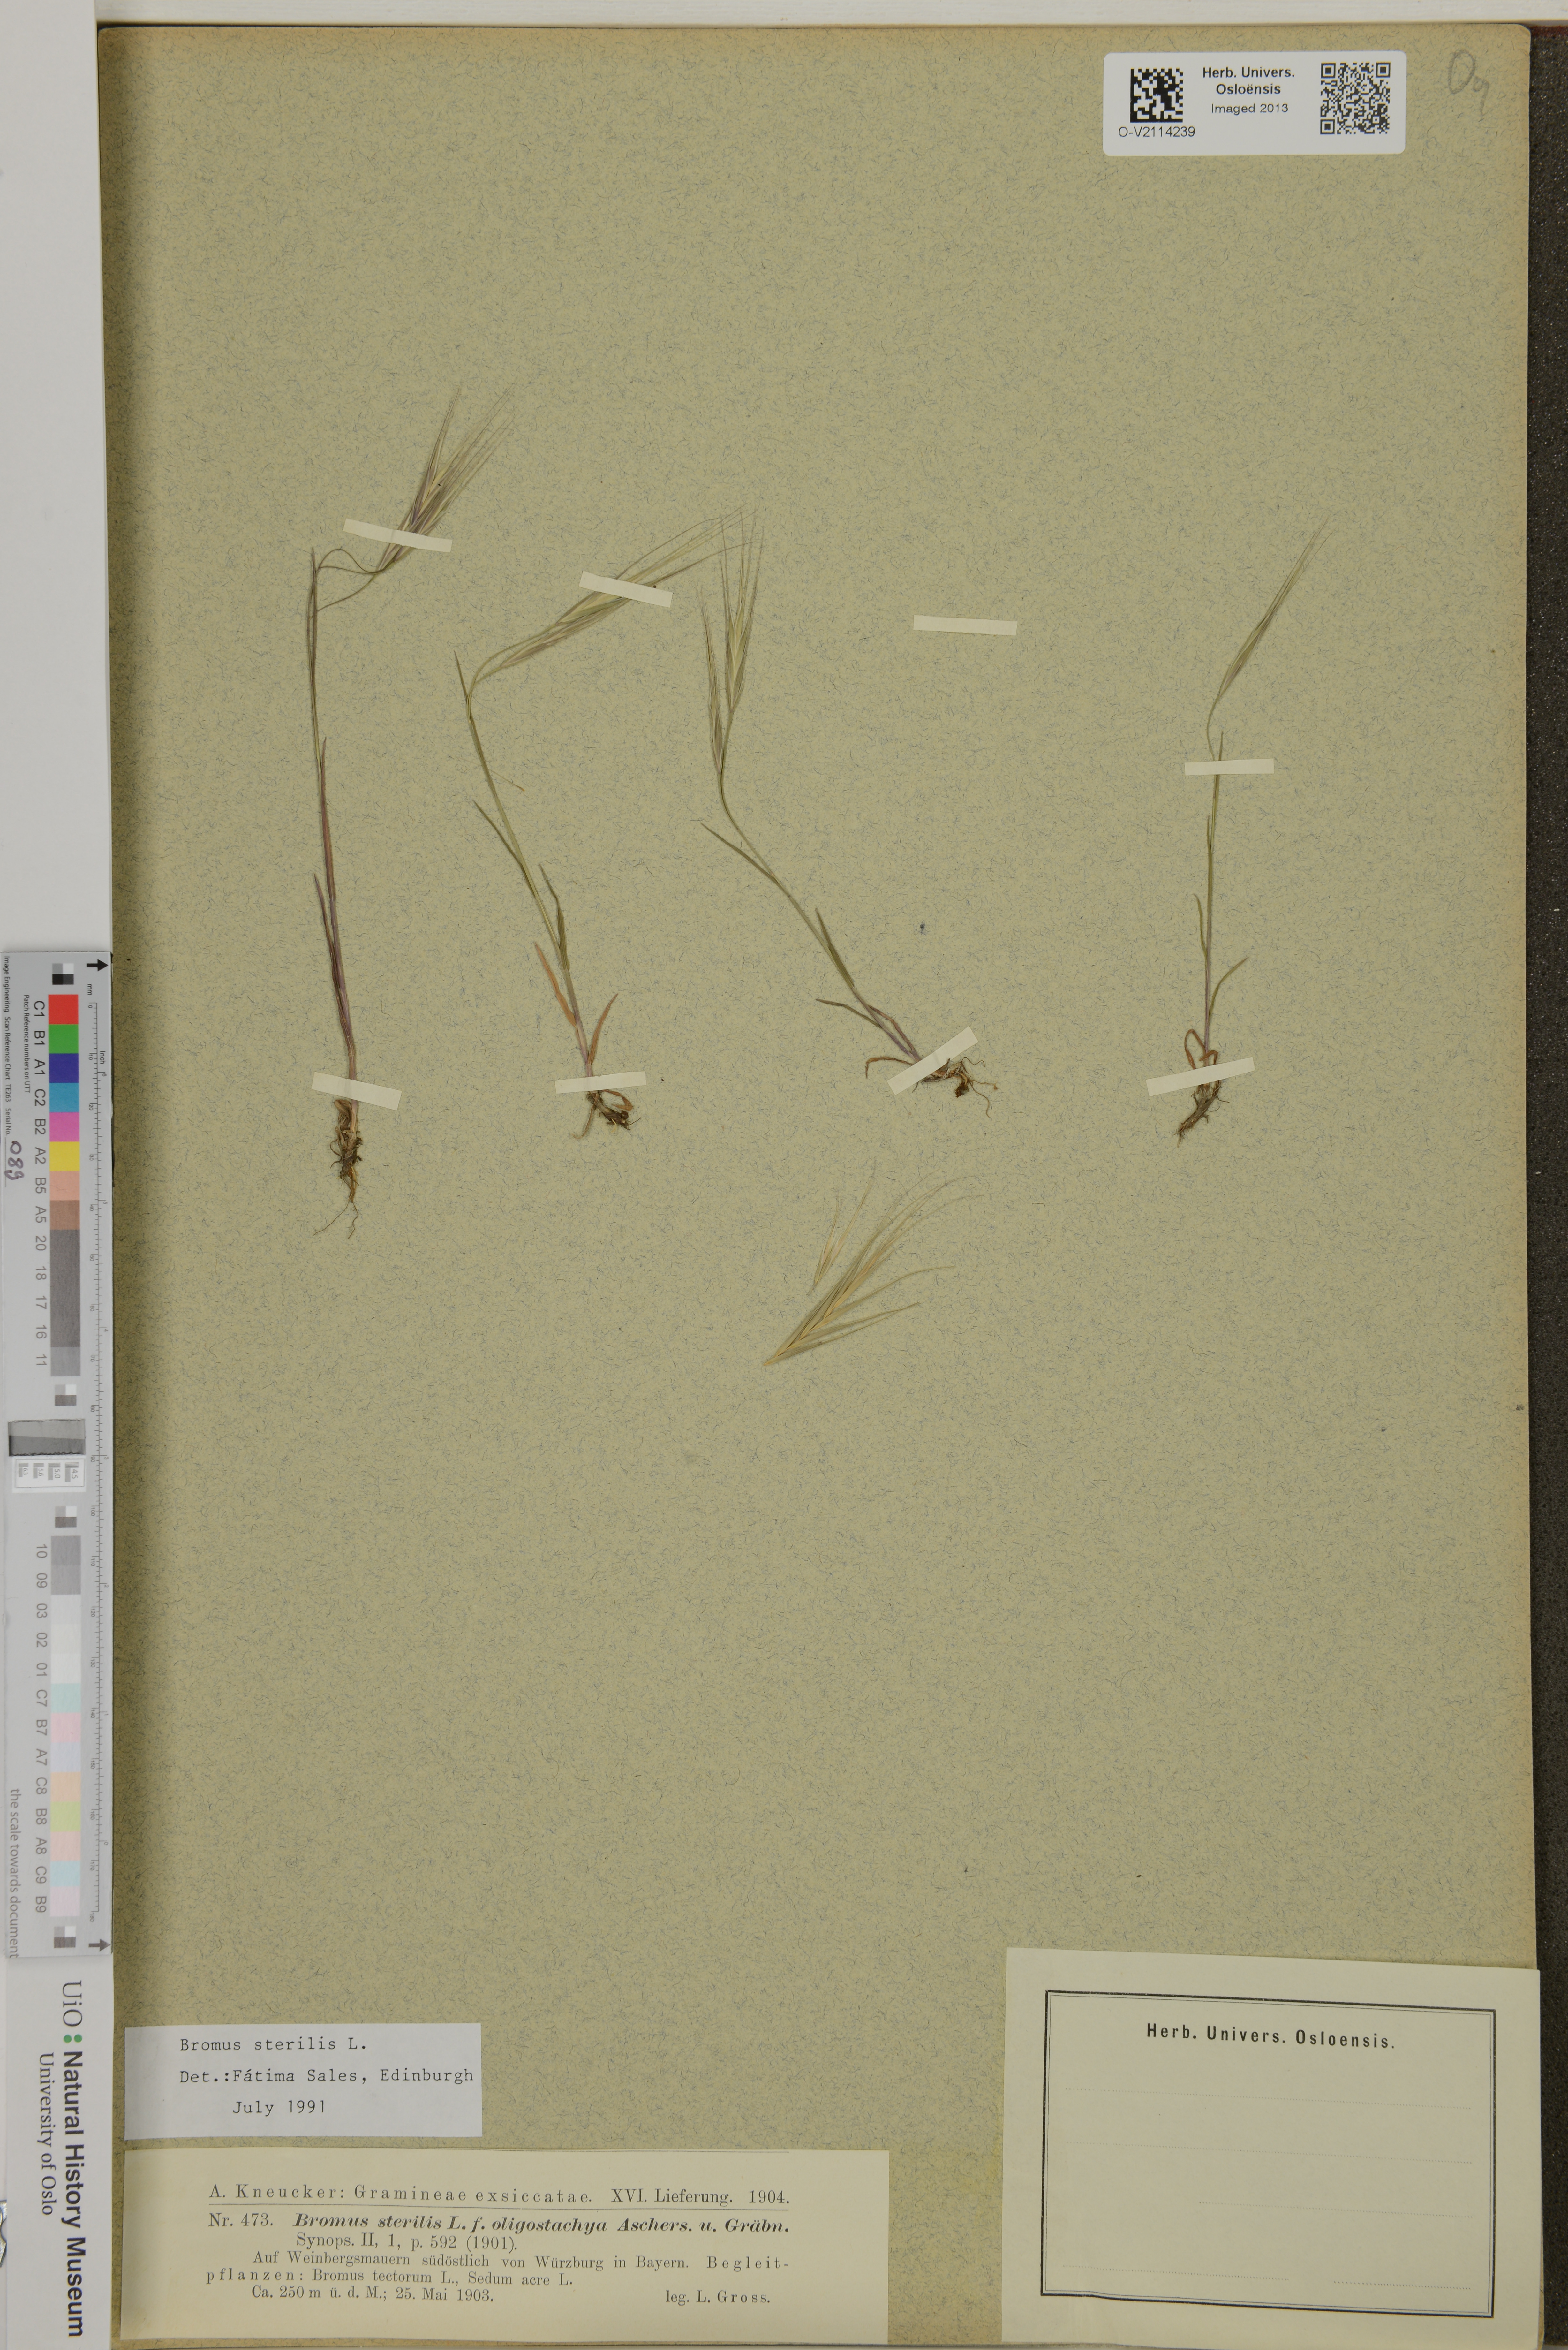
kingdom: Plantae
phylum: Tracheophyta
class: Liliopsida
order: Poales
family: Poaceae
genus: Bromus
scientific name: Bromus sterilis
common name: Poverty brome
